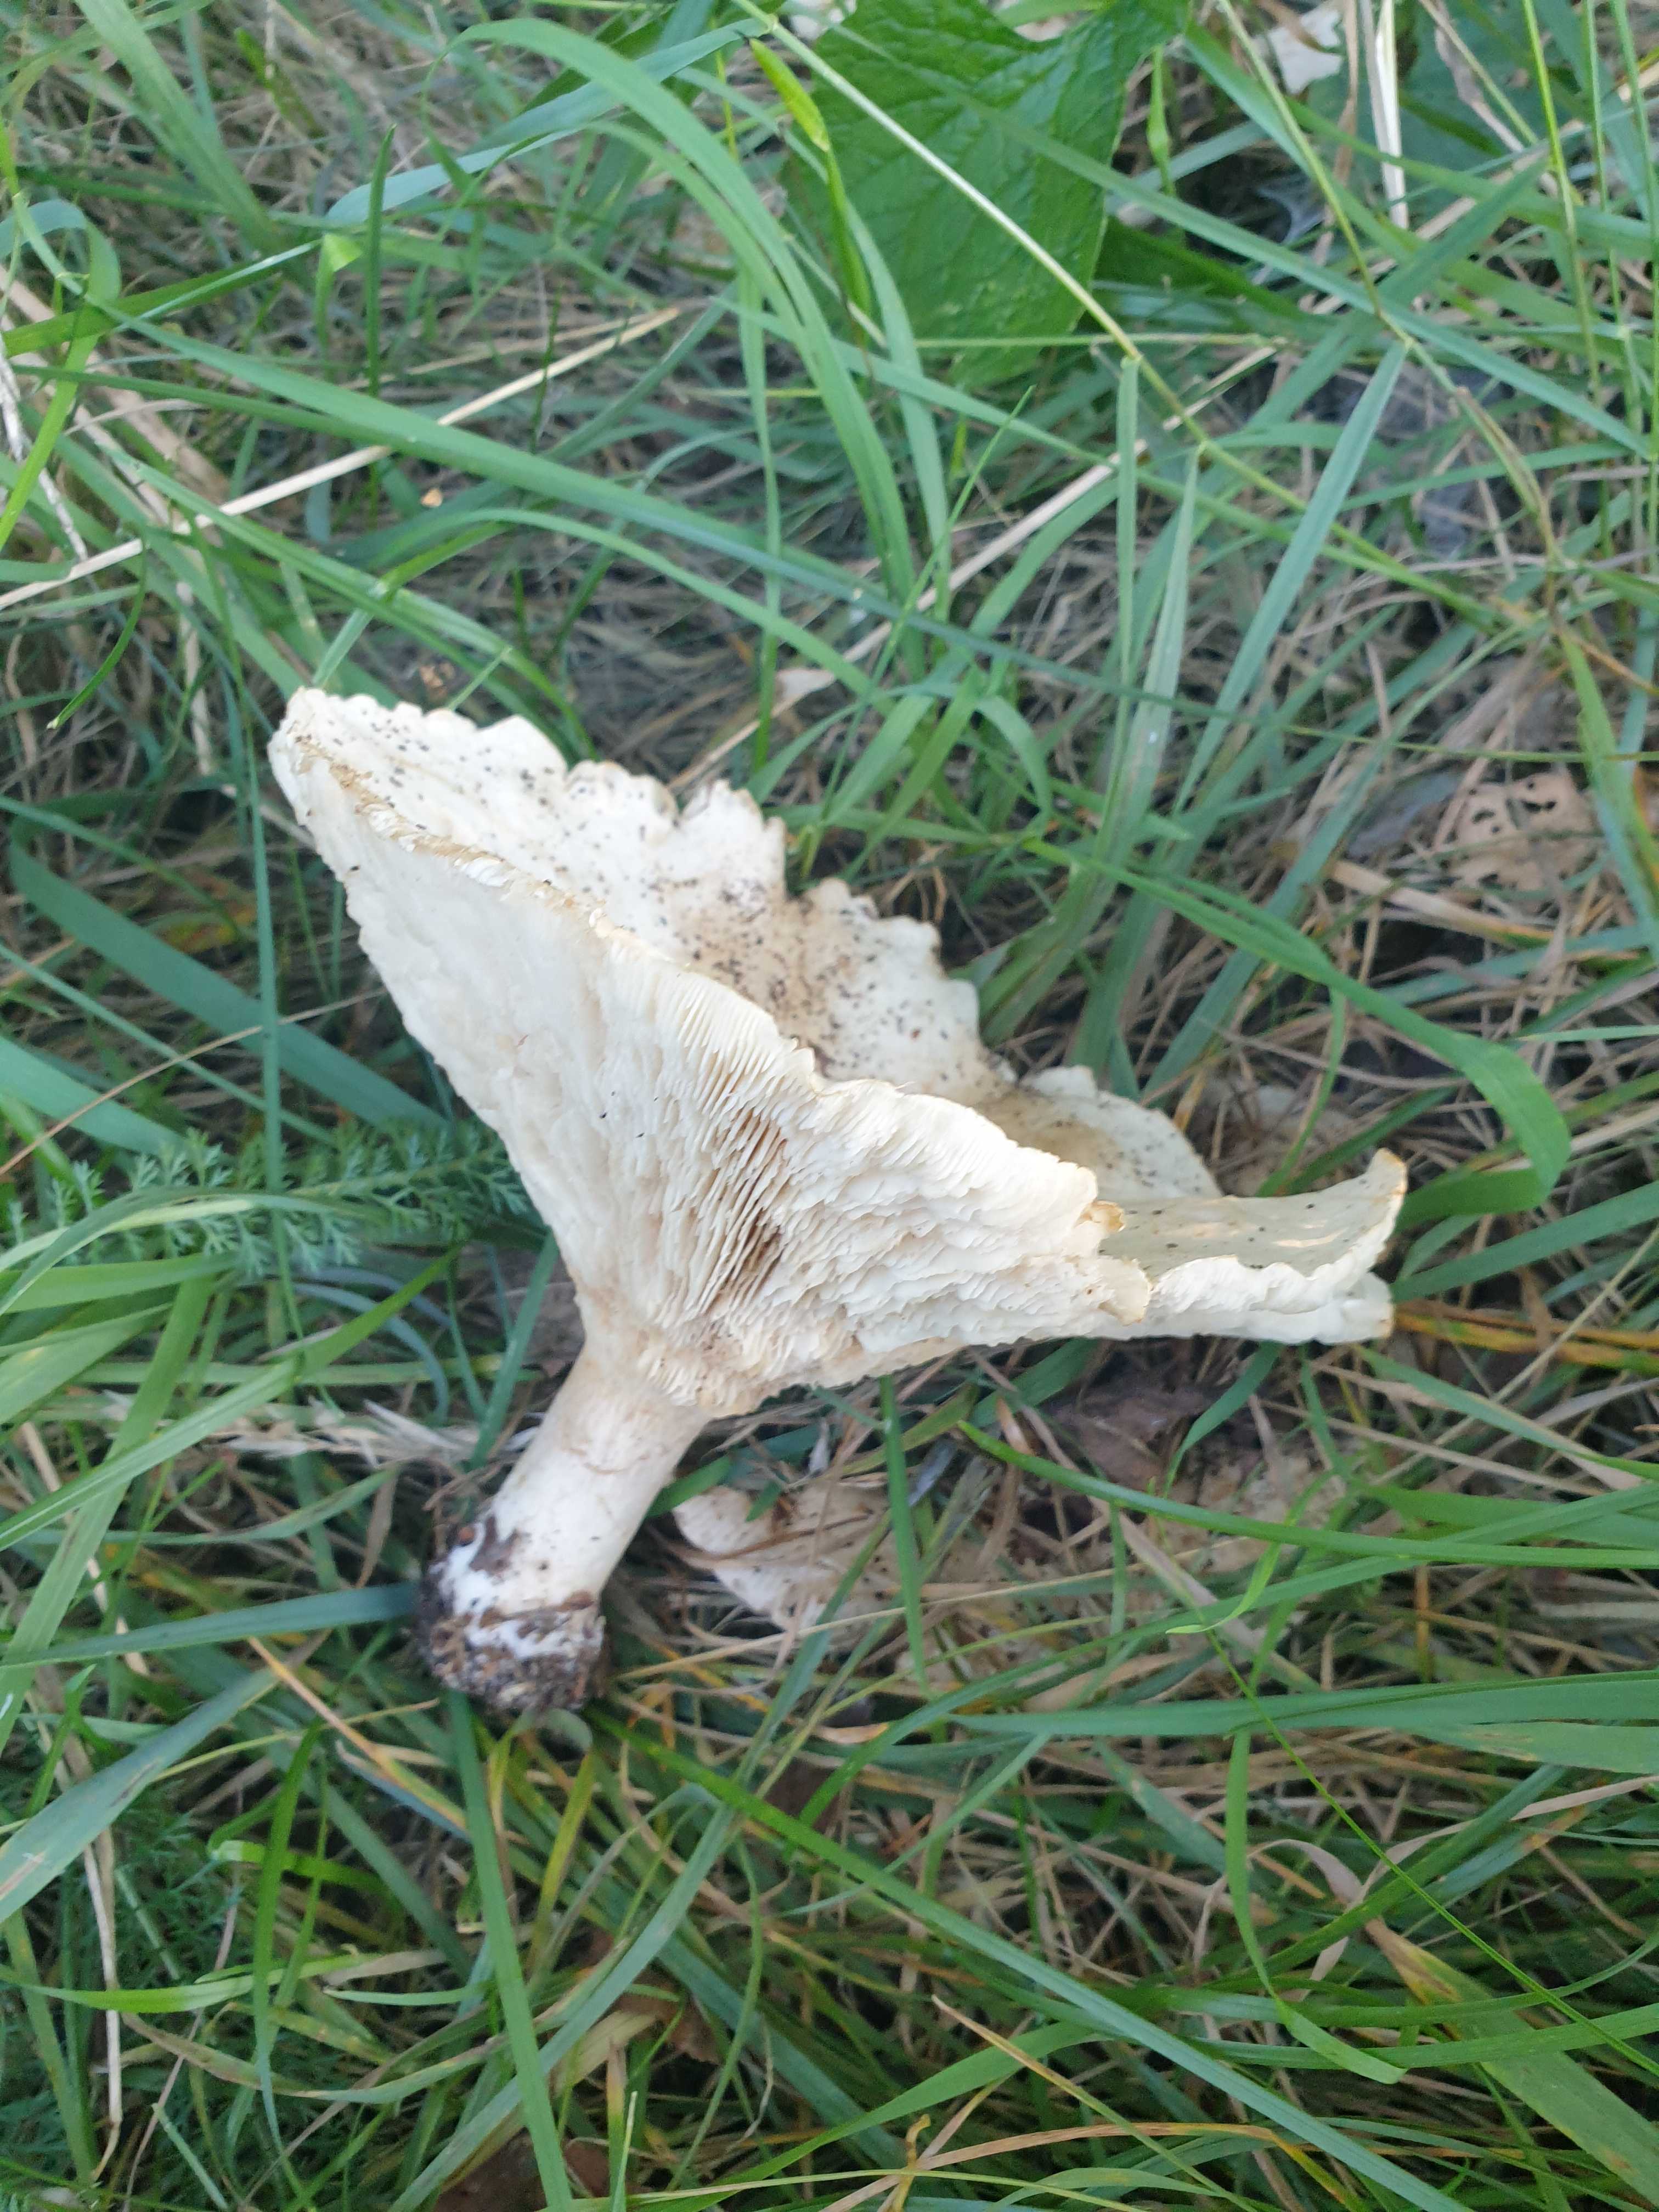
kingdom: Fungi
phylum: Basidiomycota
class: Agaricomycetes
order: Agaricales
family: Tricholomataceae
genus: Aspropaxillus
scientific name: Aspropaxillus giganteus
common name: kæmpe-tragtridderhat
